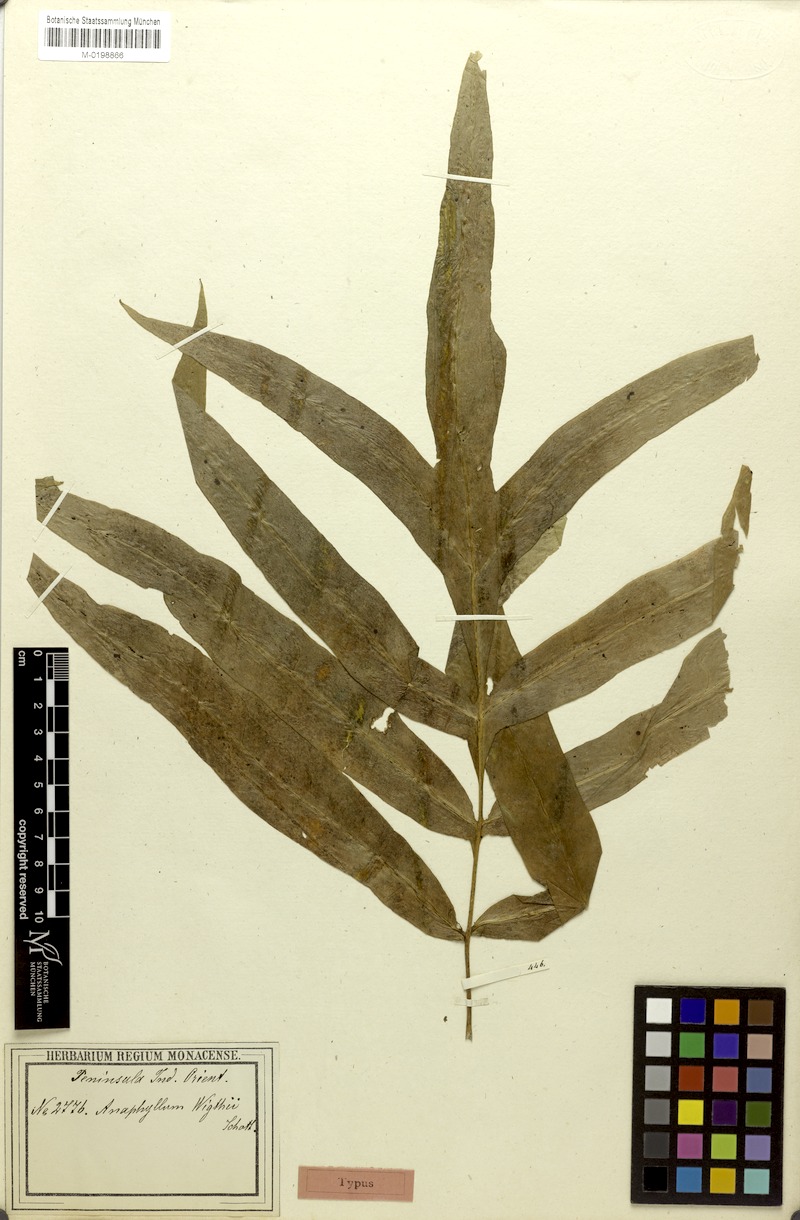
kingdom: Plantae
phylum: Tracheophyta
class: Liliopsida
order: Alismatales
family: Araceae
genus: Anaphyllum
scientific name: Anaphyllum wightii
